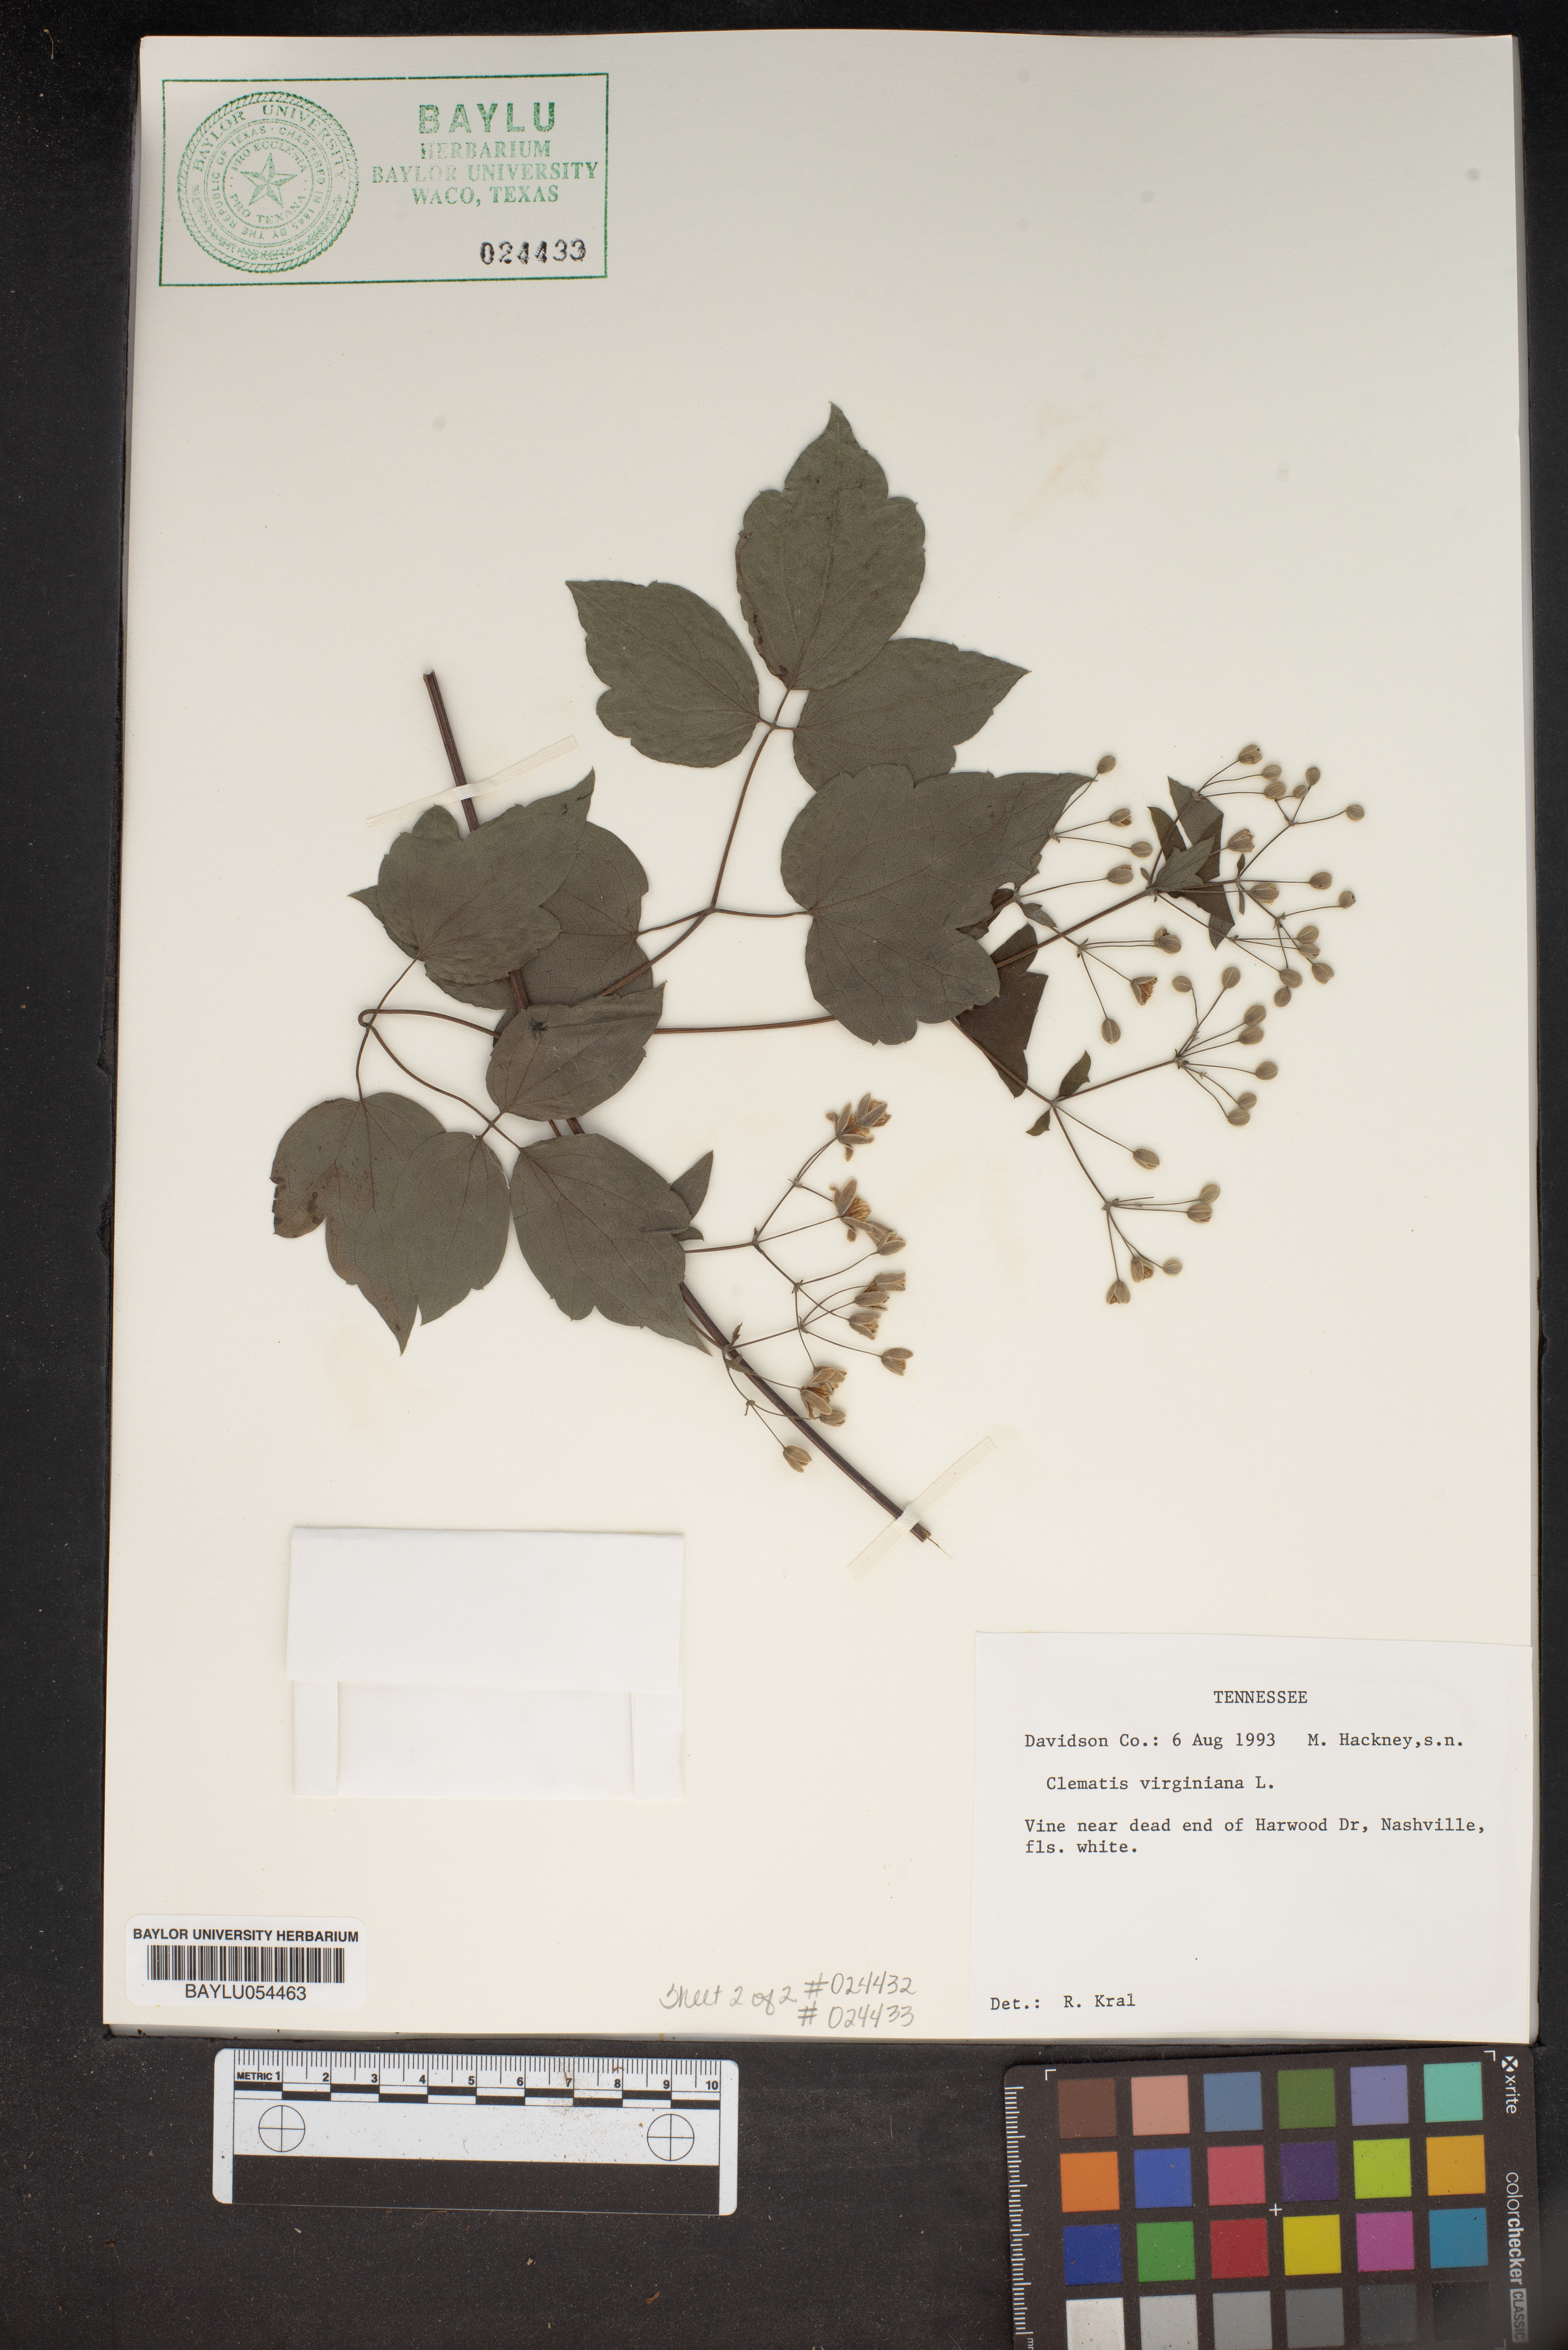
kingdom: Plantae
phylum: Tracheophyta
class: Magnoliopsida
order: Ranunculales
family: Ranunculaceae
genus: Clematis
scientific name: Clematis virginiana
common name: Virgin's-bower
